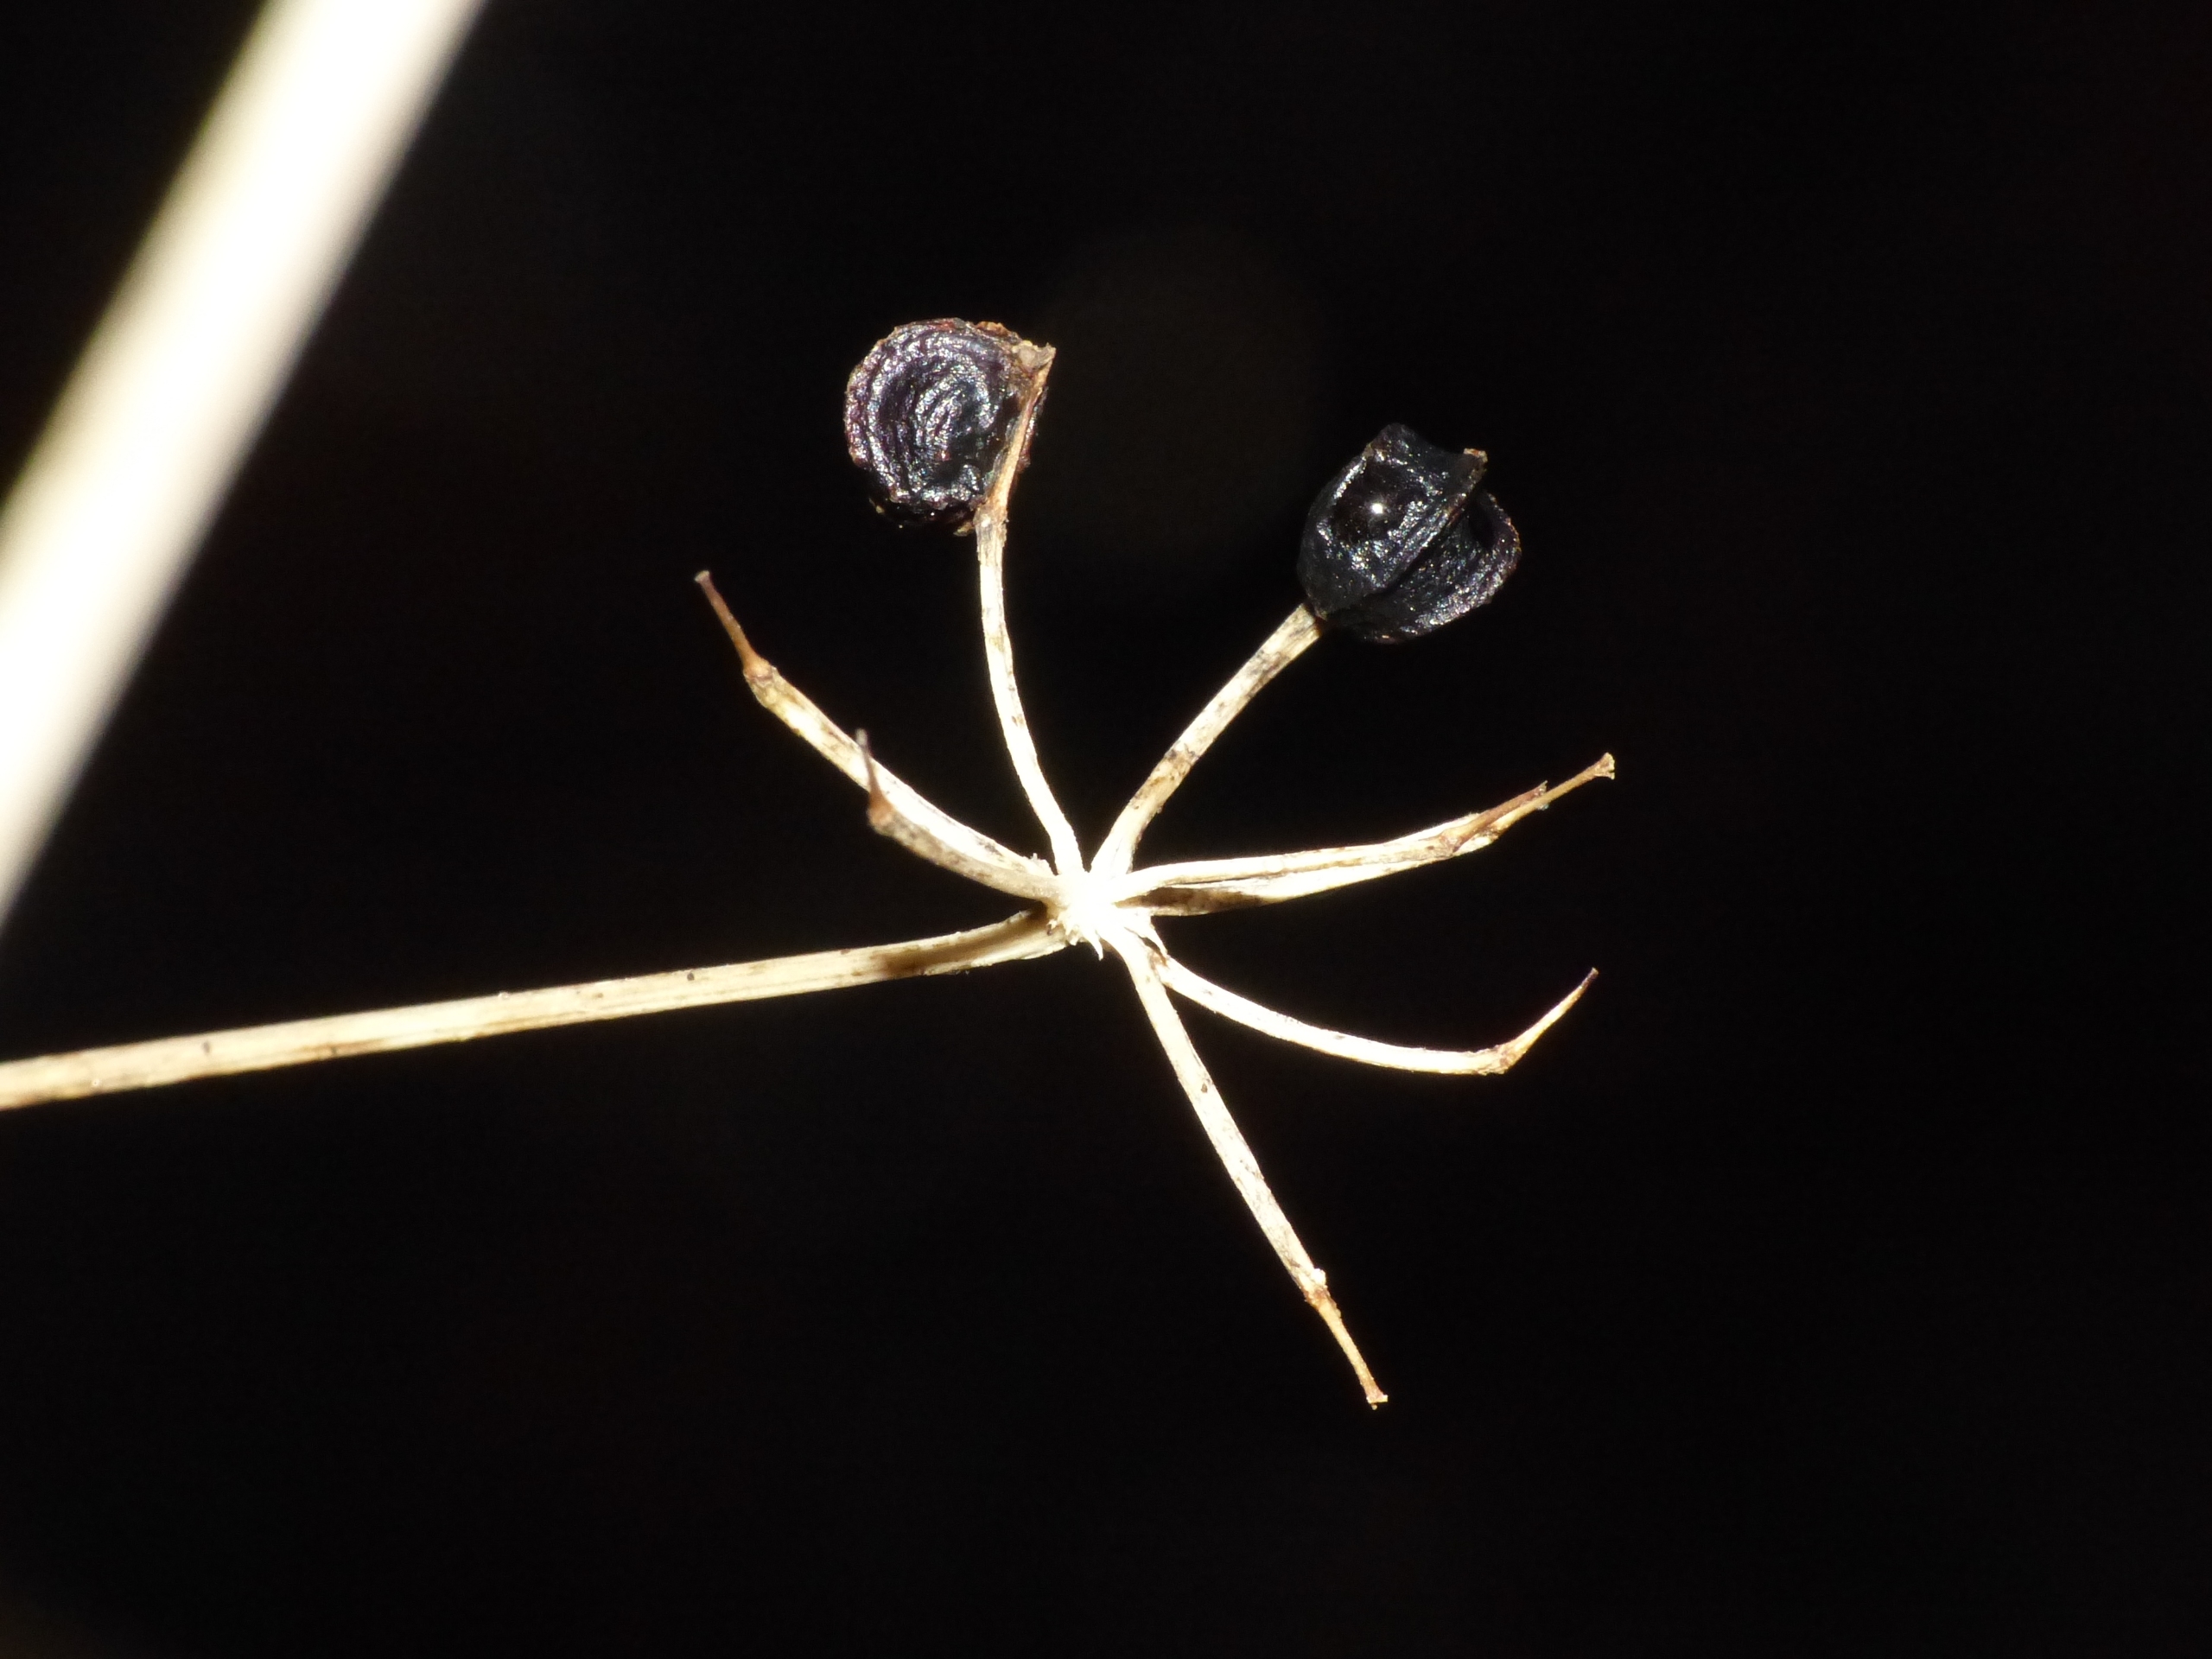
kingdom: Plantae
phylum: Tracheophyta
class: Magnoliopsida
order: Apiales
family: Apiaceae
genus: Smyrnium
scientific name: Smyrnium perfoliatum
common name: Lundgylden
